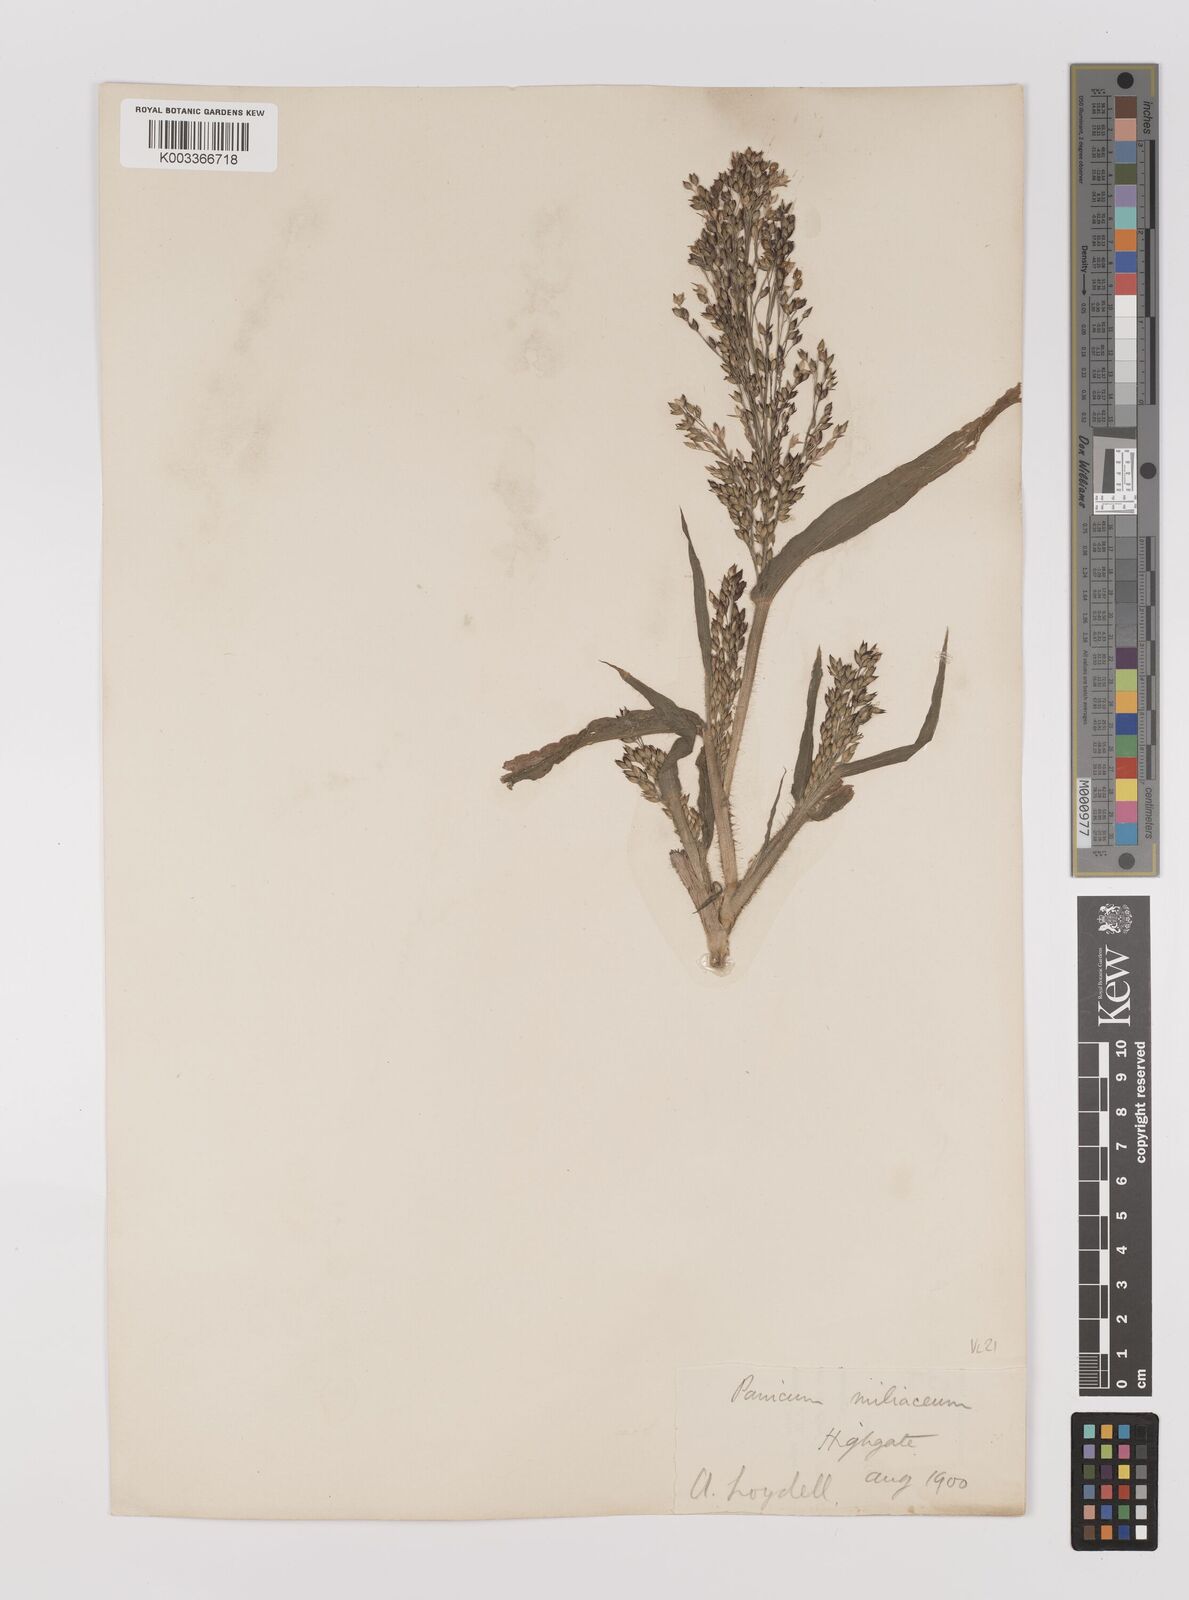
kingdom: Plantae
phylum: Tracheophyta
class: Liliopsida
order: Poales
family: Poaceae
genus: Panicum
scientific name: Panicum miliaceum
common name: Common millet
